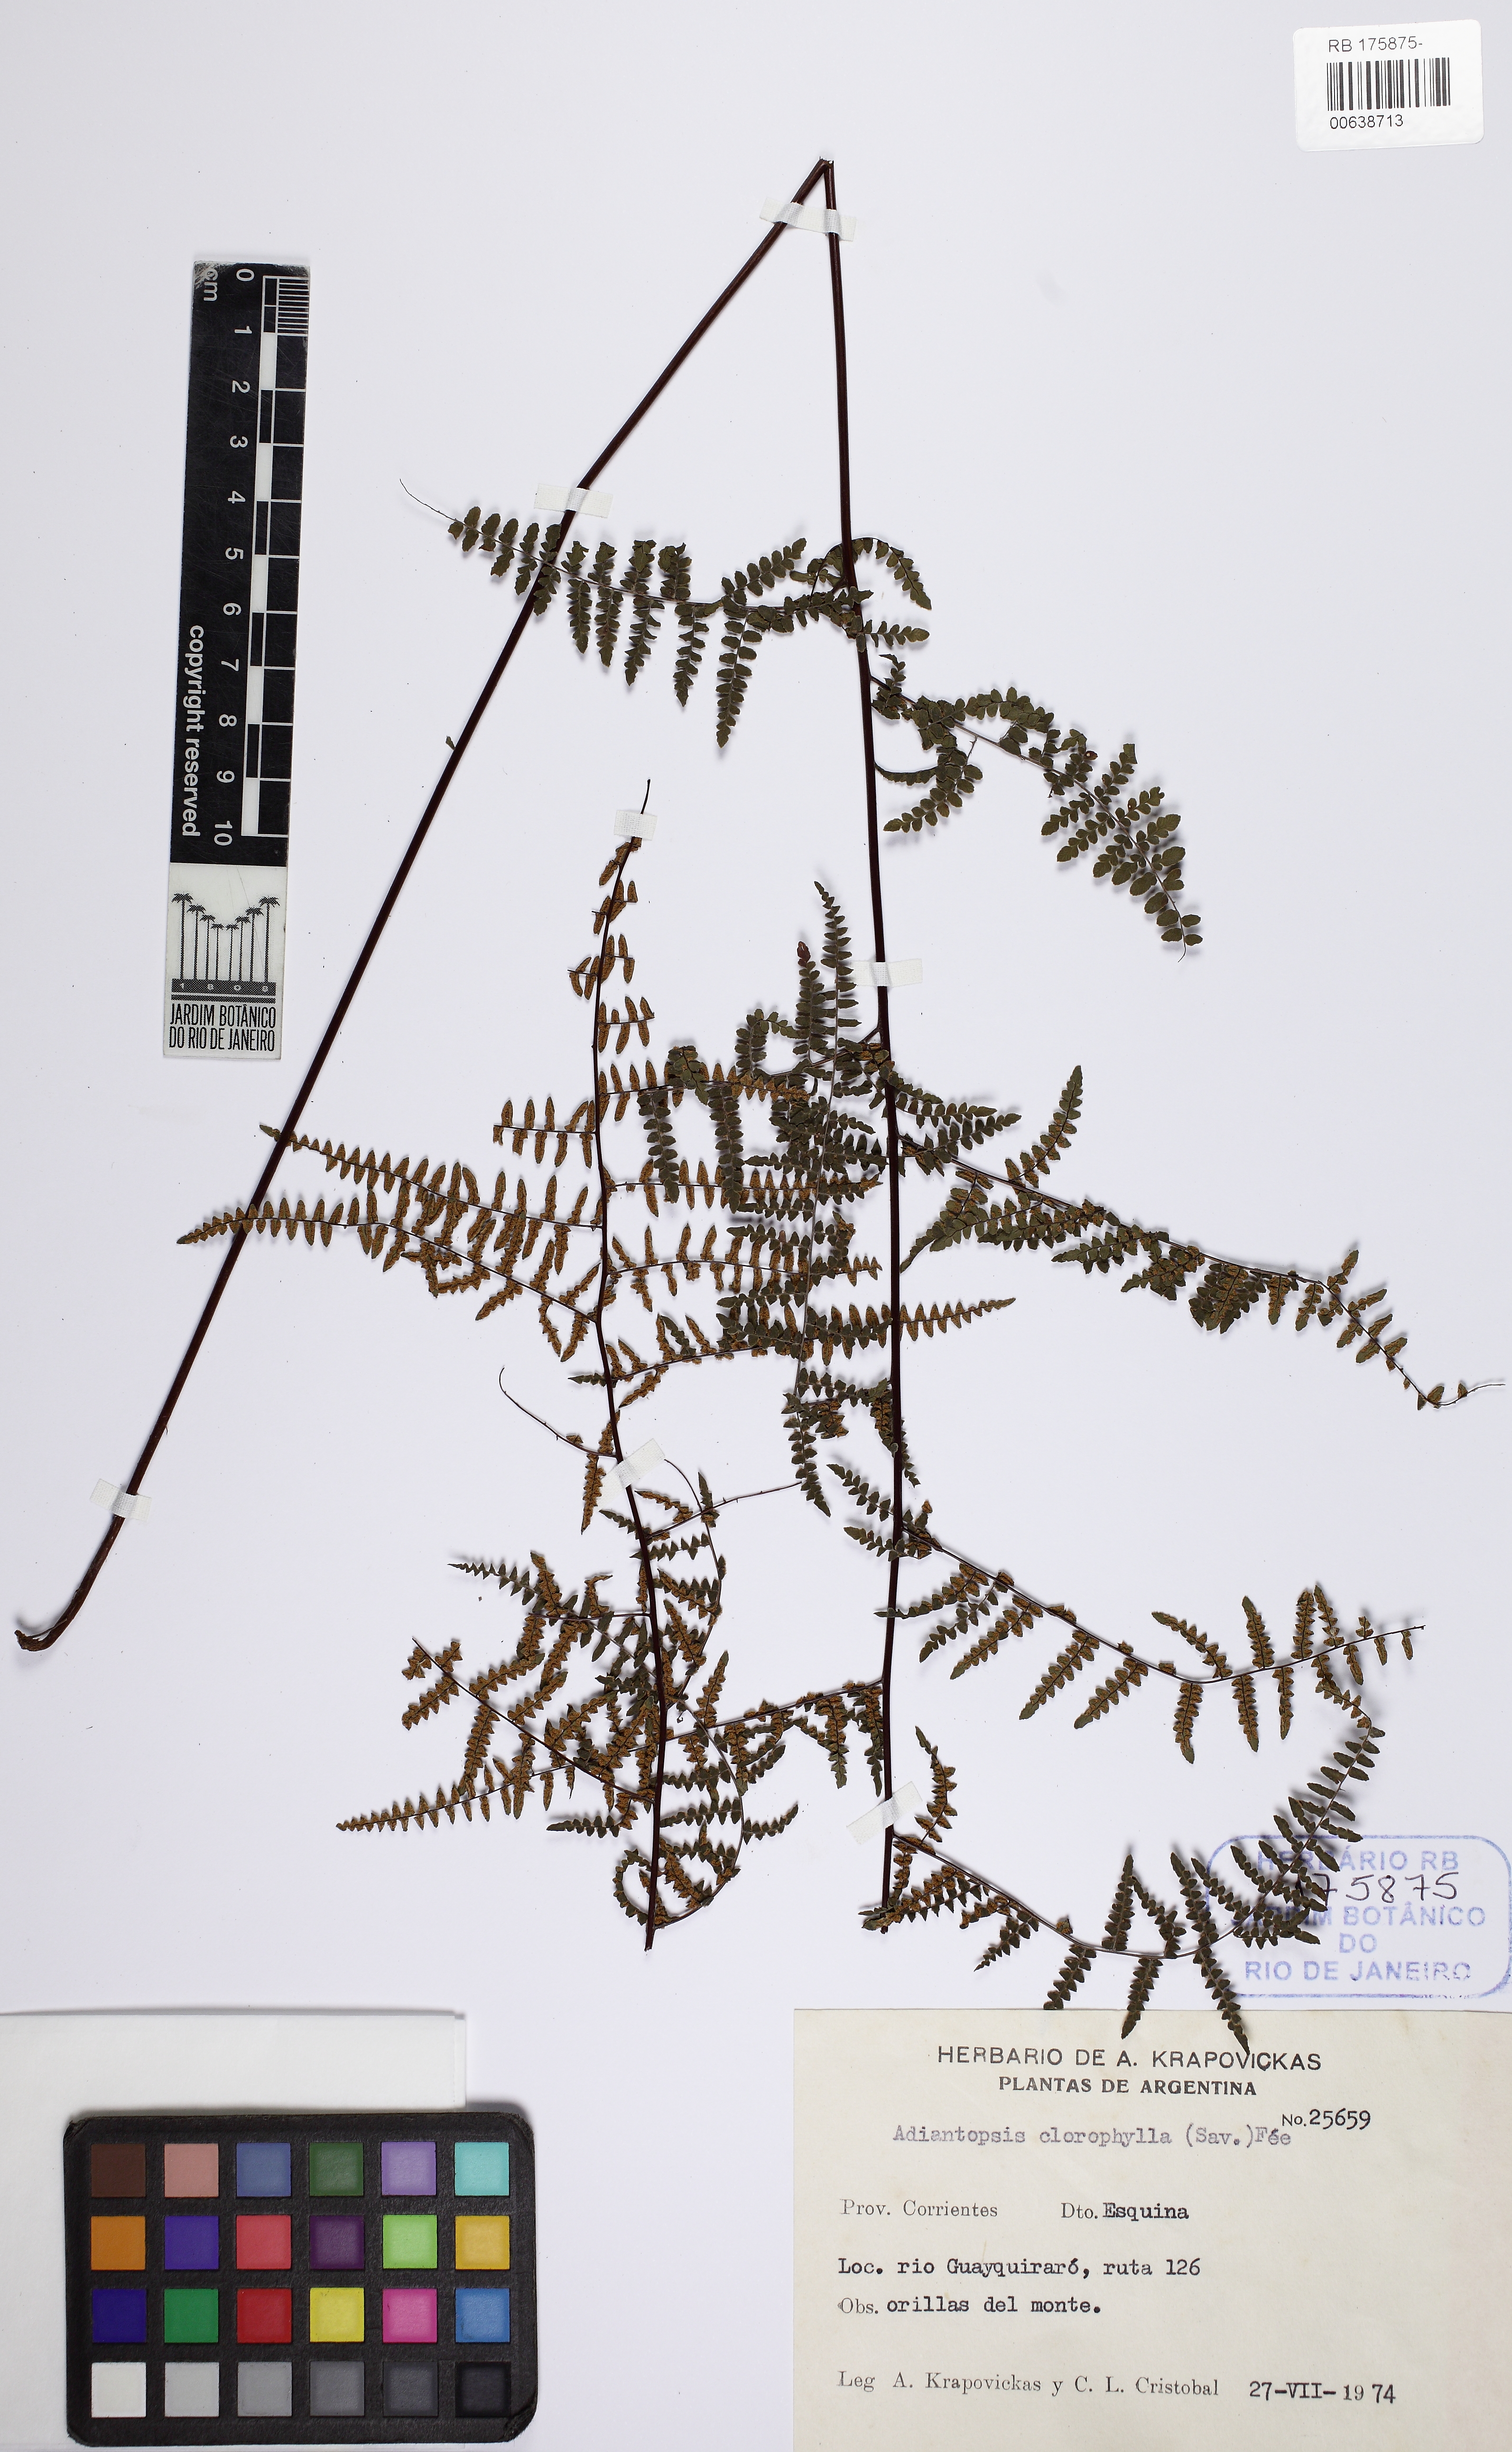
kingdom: Plantae
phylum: Tracheophyta
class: Polypodiopsida
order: Polypodiales
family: Pteridaceae
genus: Adiantopsis
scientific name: Adiantopsis chlorophylla
